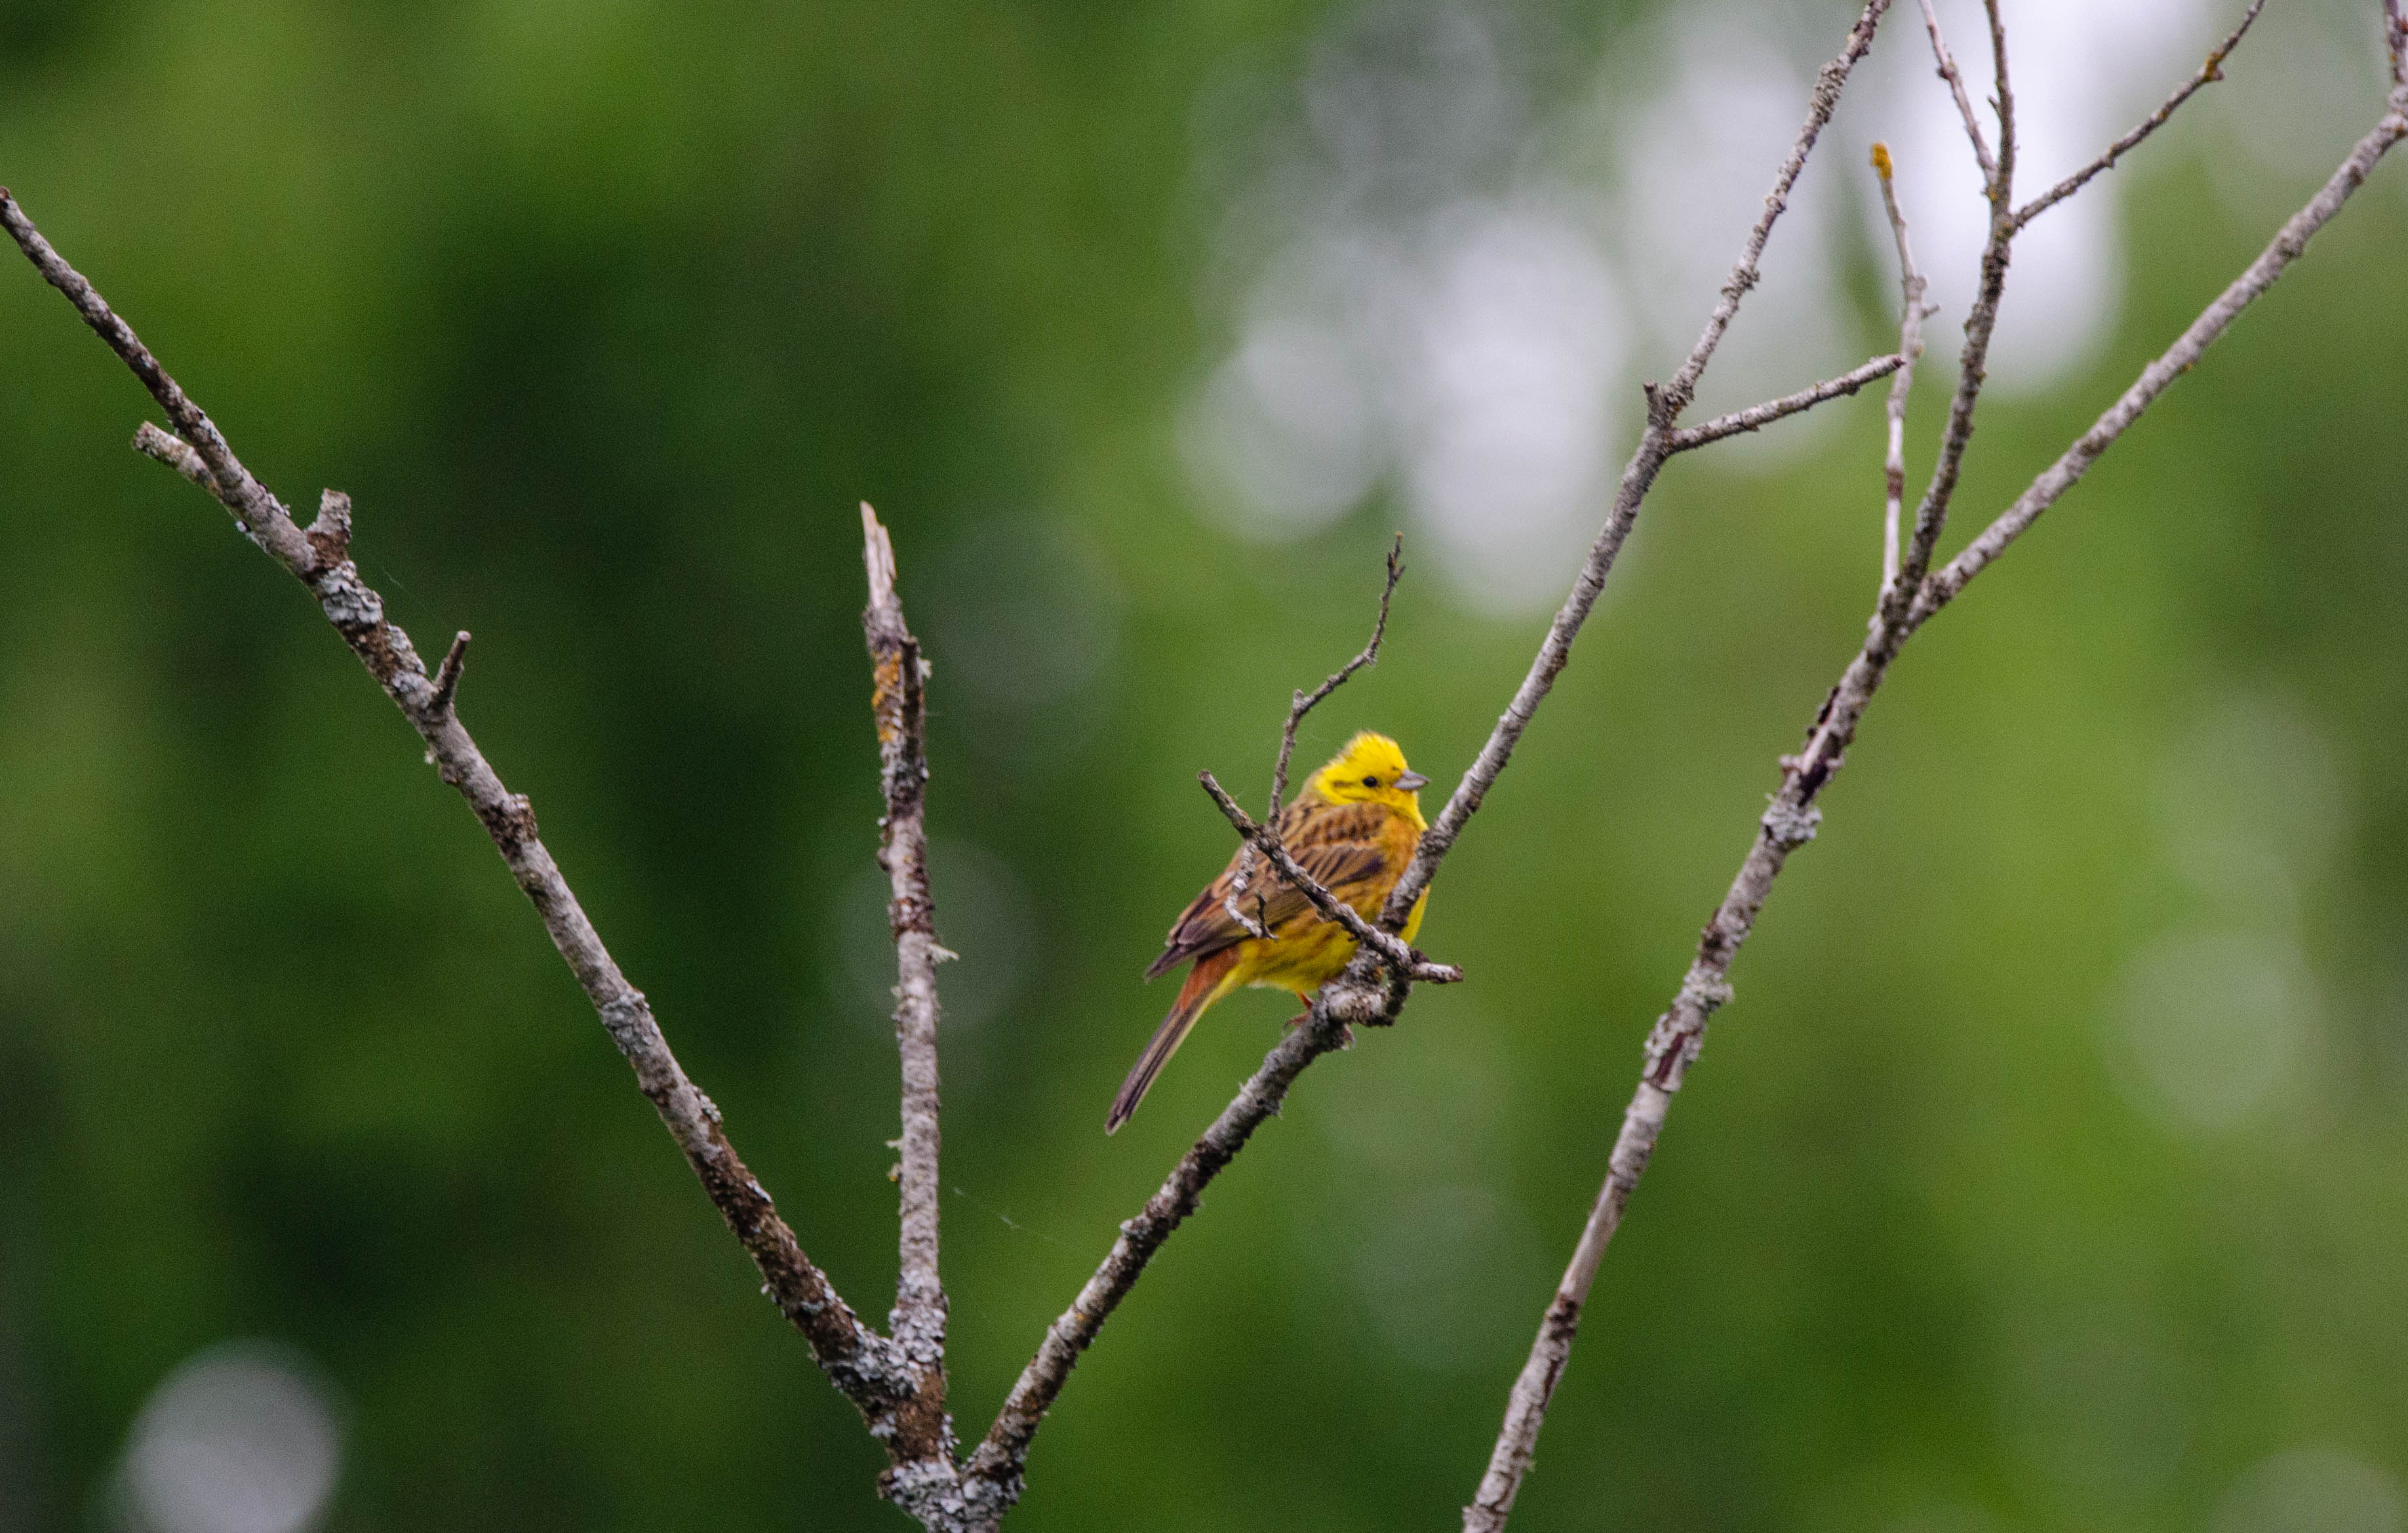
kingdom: Animalia
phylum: Chordata
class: Aves
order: Passeriformes
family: Emberizidae
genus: Emberiza
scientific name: Emberiza citrinella
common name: Gulspurv
